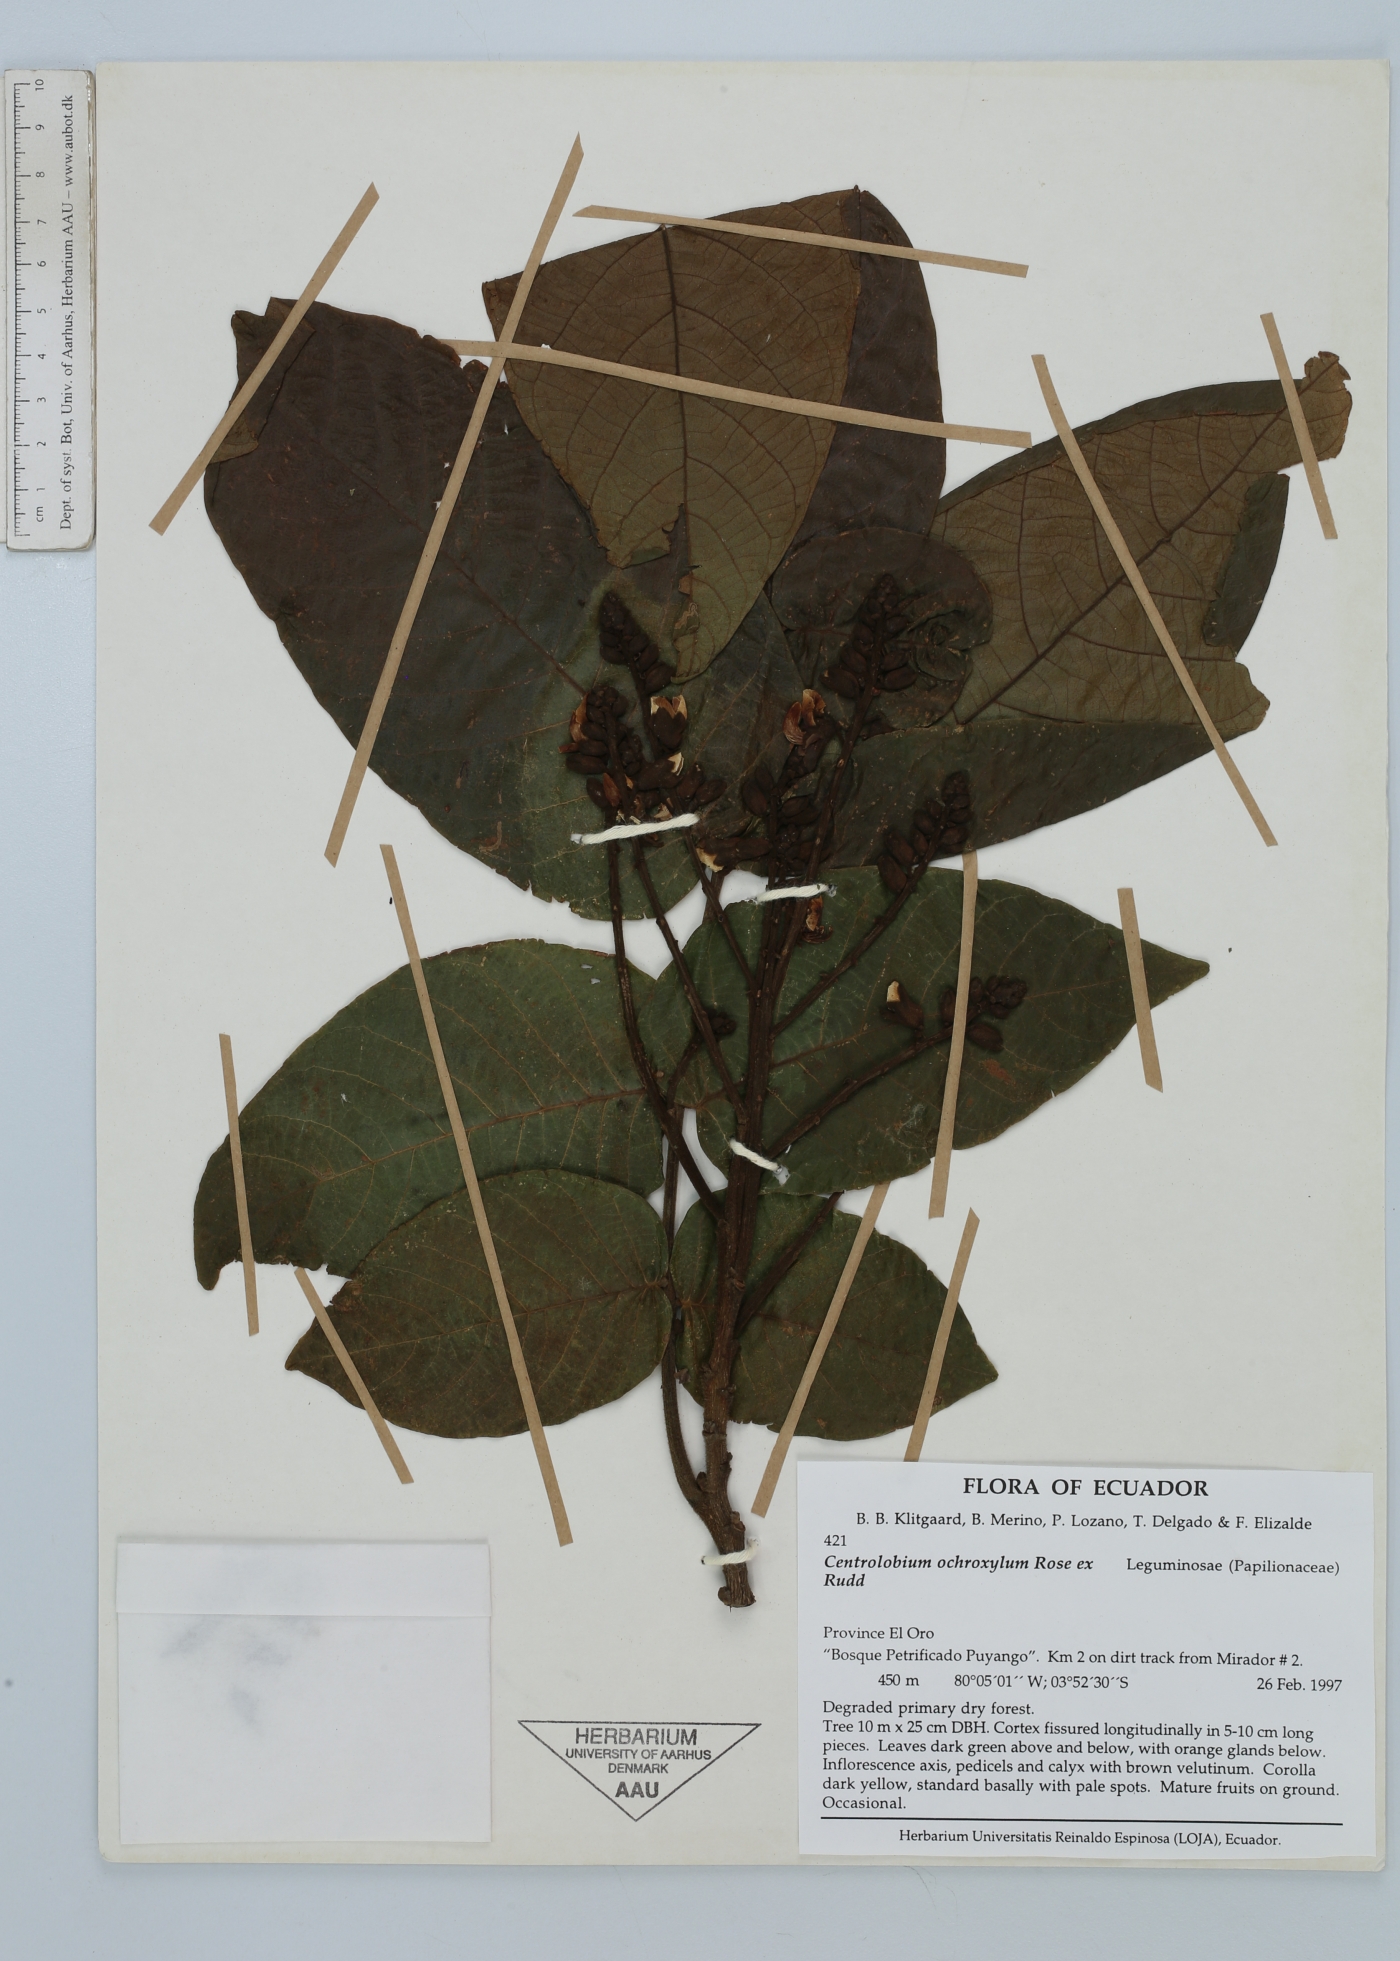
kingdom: Plantae
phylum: Tracheophyta
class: Magnoliopsida
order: Fabales
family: Fabaceae
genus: Centrolobium
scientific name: Centrolobium ochroxylum
